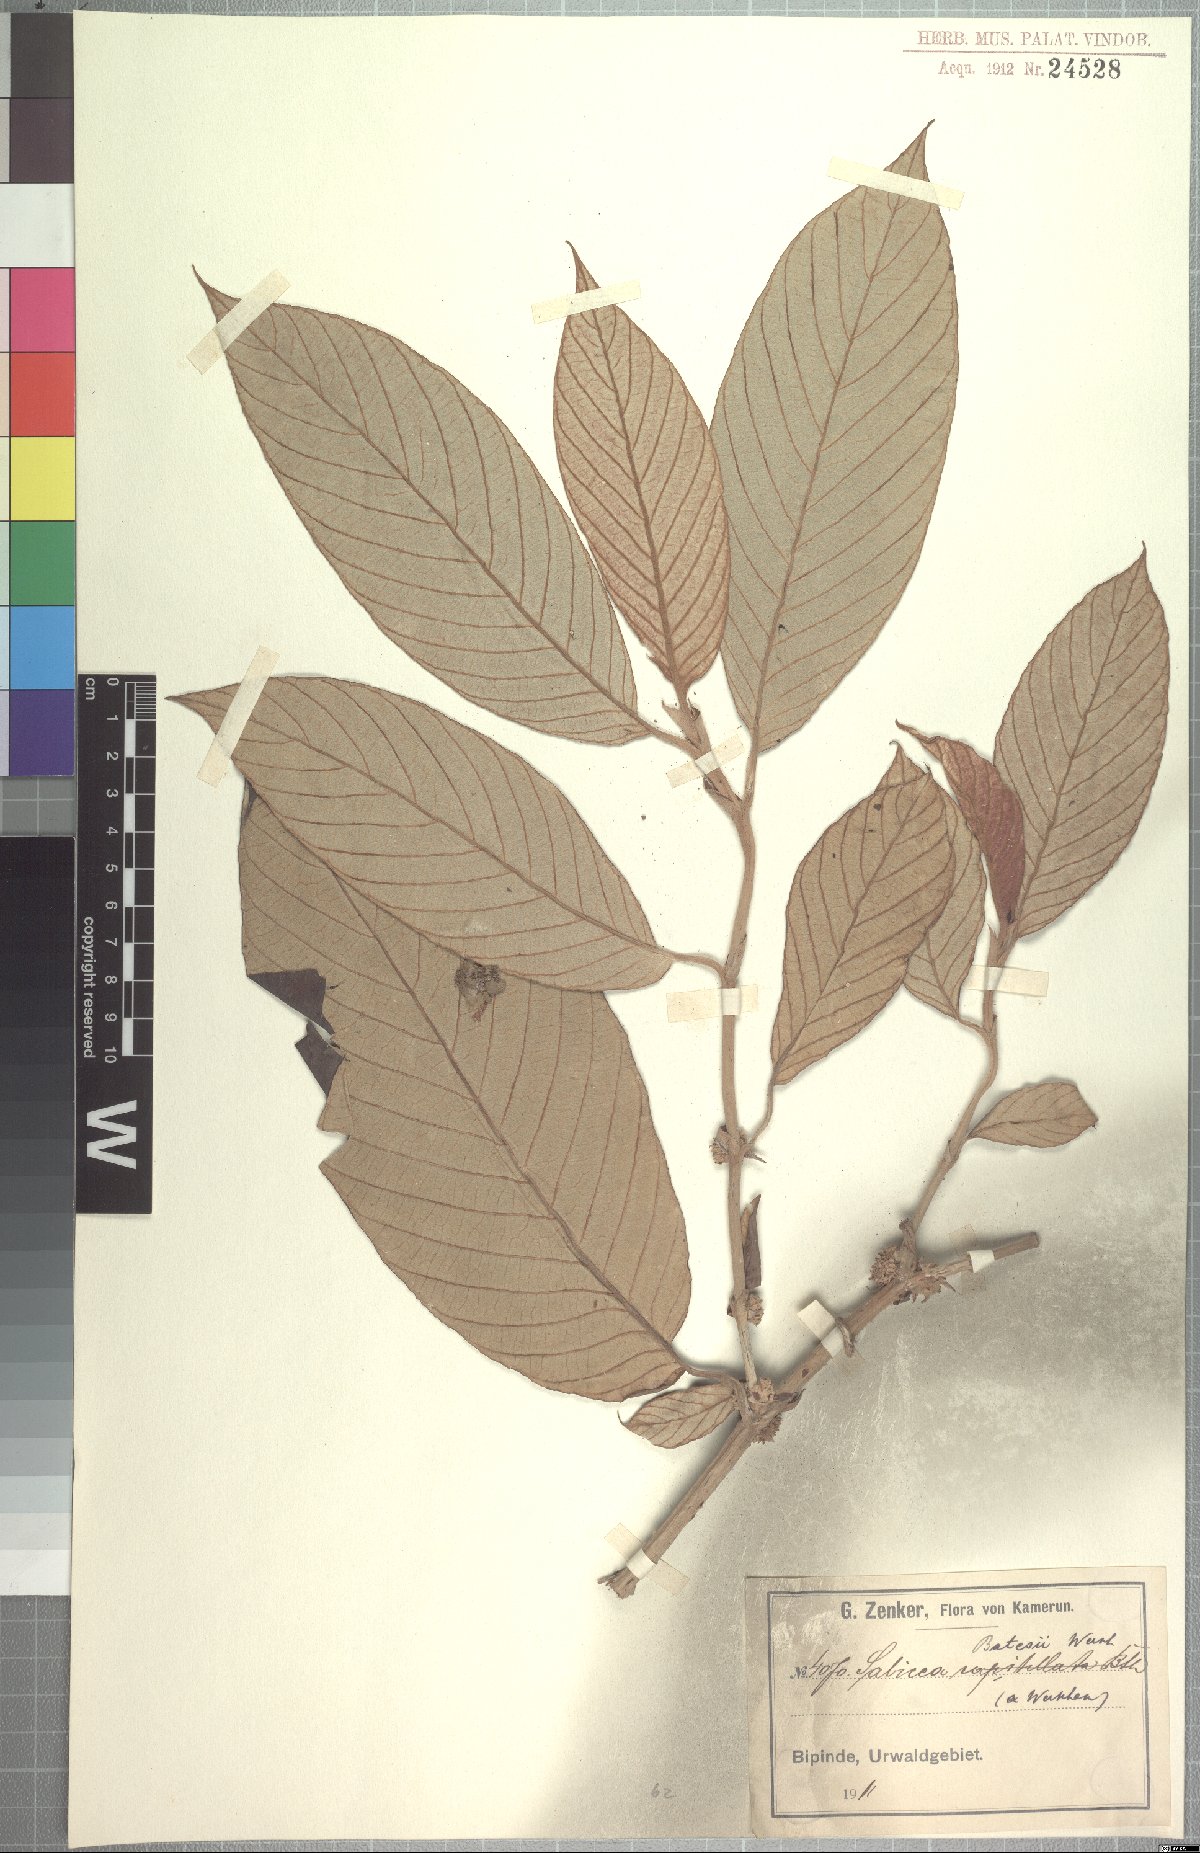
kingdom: Plantae
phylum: Tracheophyta
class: Magnoliopsida
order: Gentianales
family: Rubiaceae
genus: Sabicea
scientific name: Sabicea batesii
